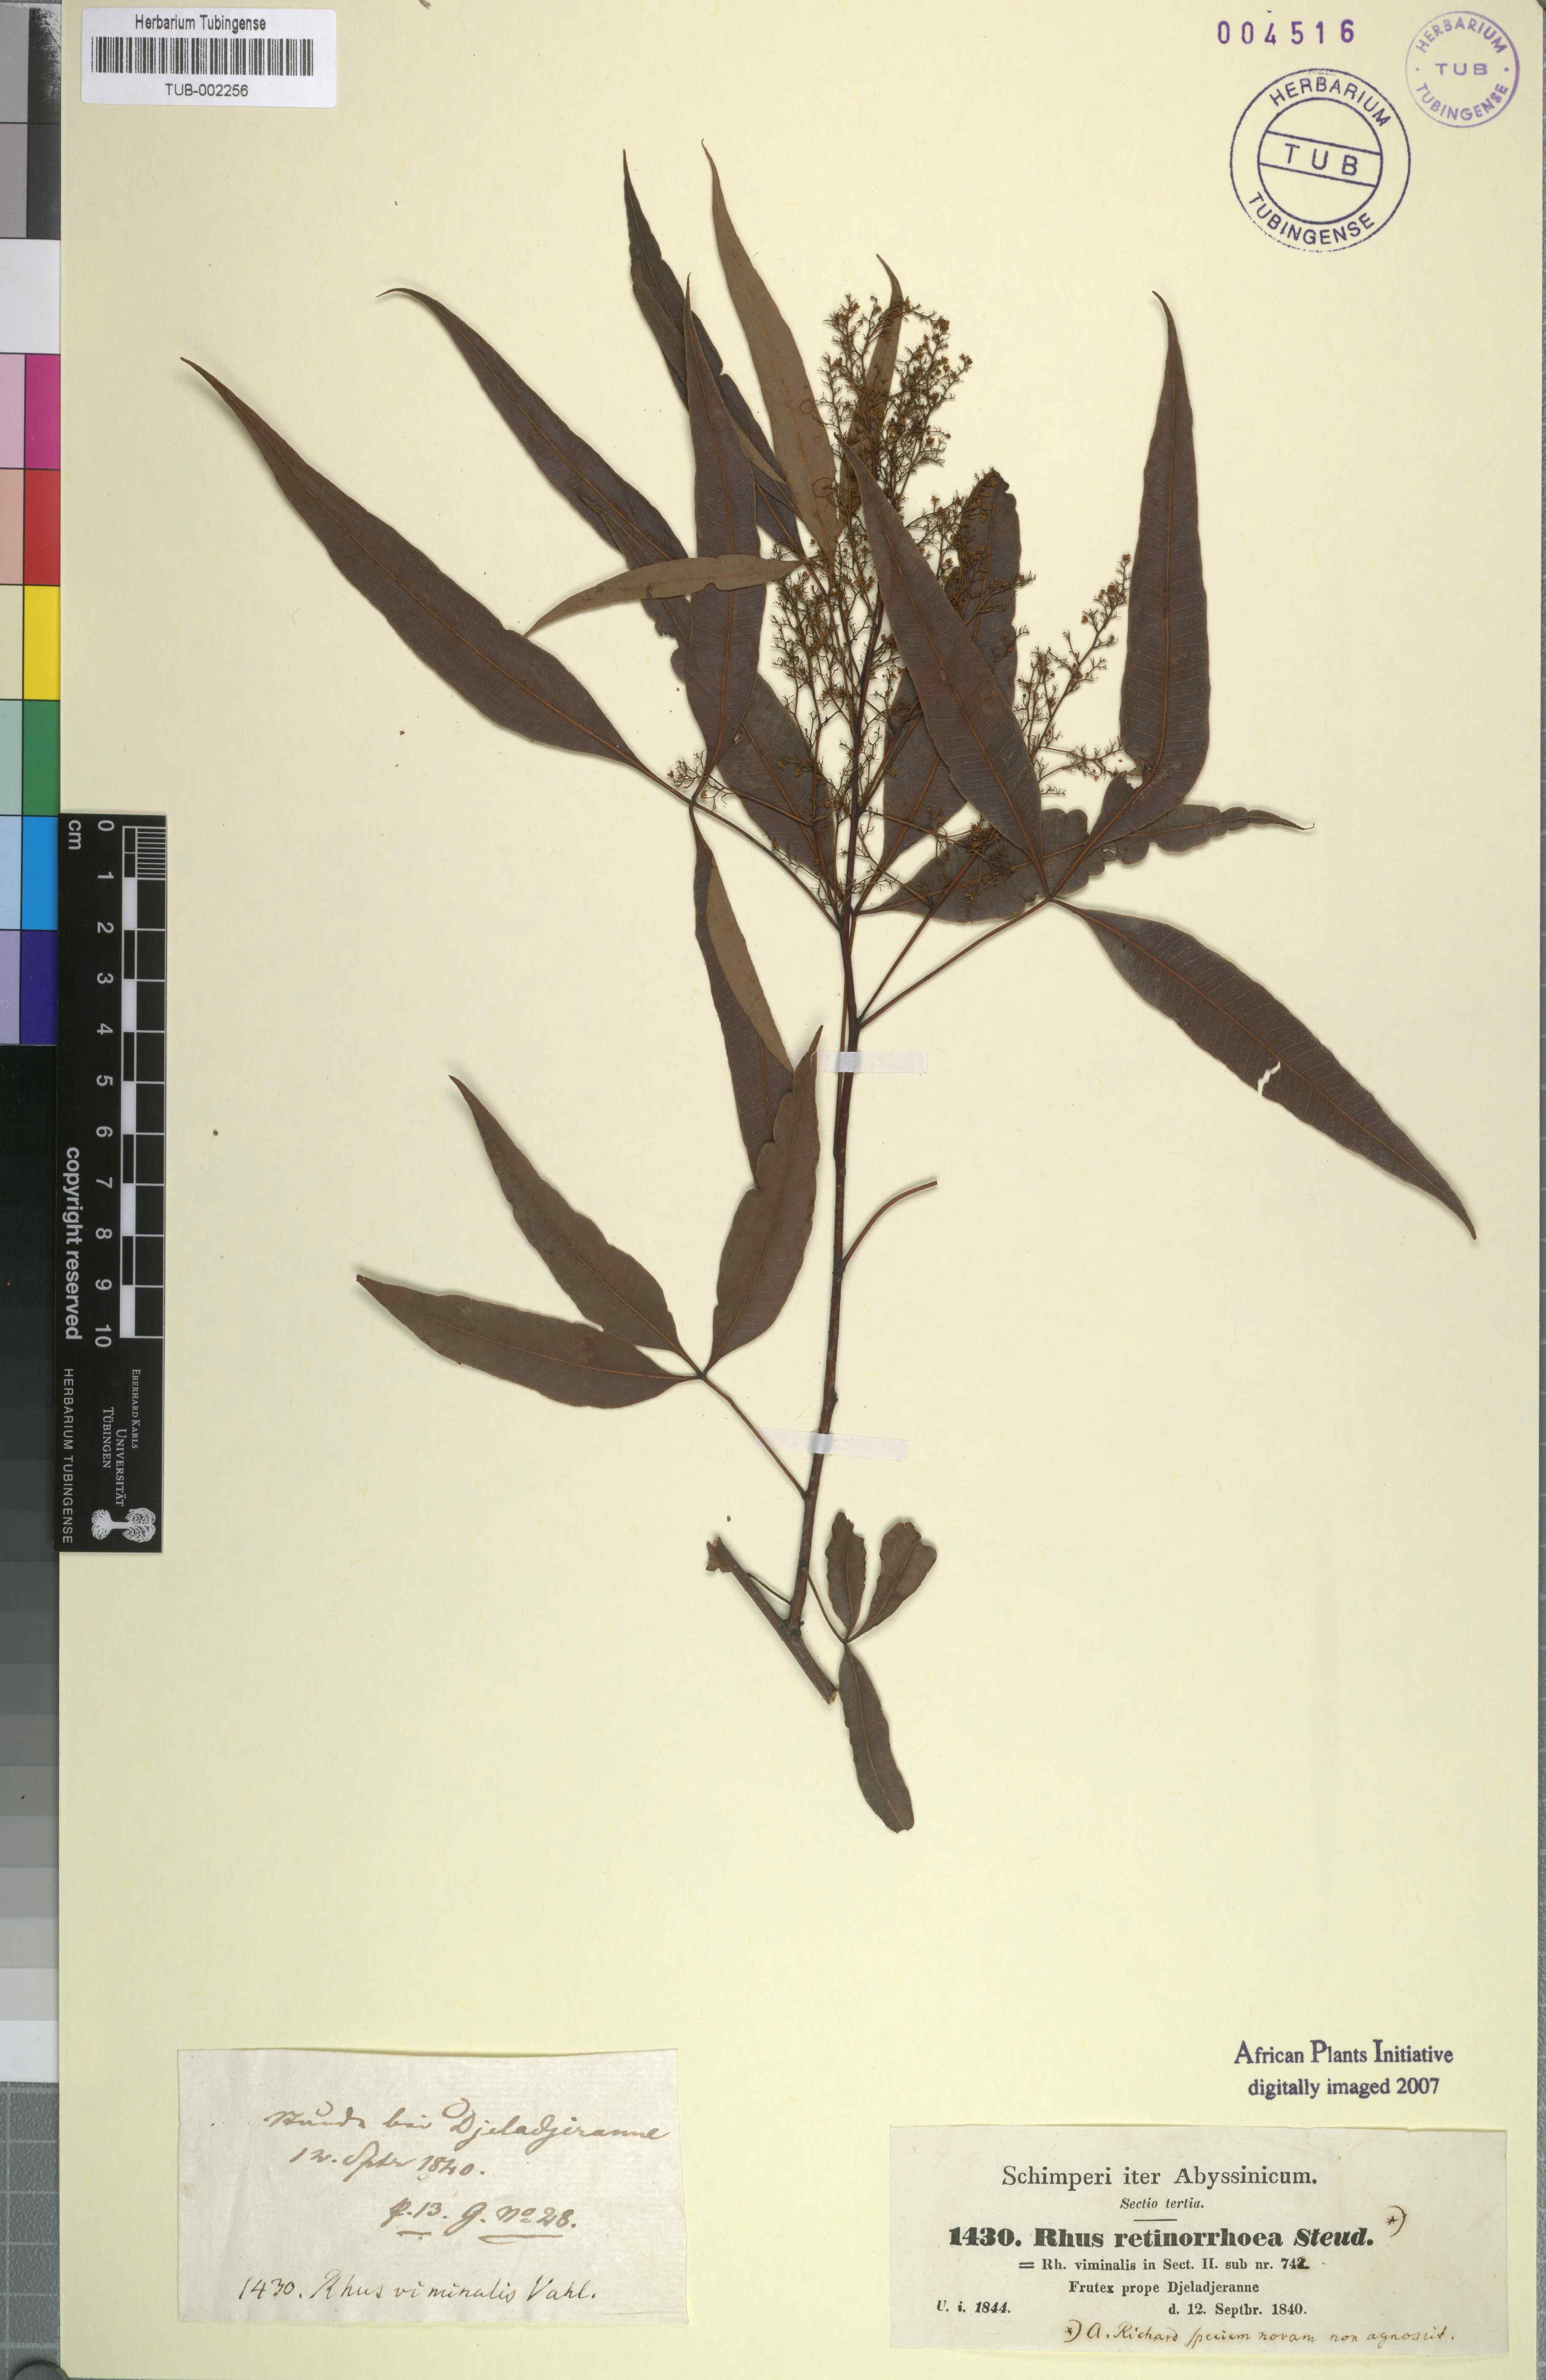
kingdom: Plantae
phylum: Tracheophyta
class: Magnoliopsida
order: Sapindales
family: Anacardiaceae
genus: Rhus
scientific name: Rhus retinorrhaea
